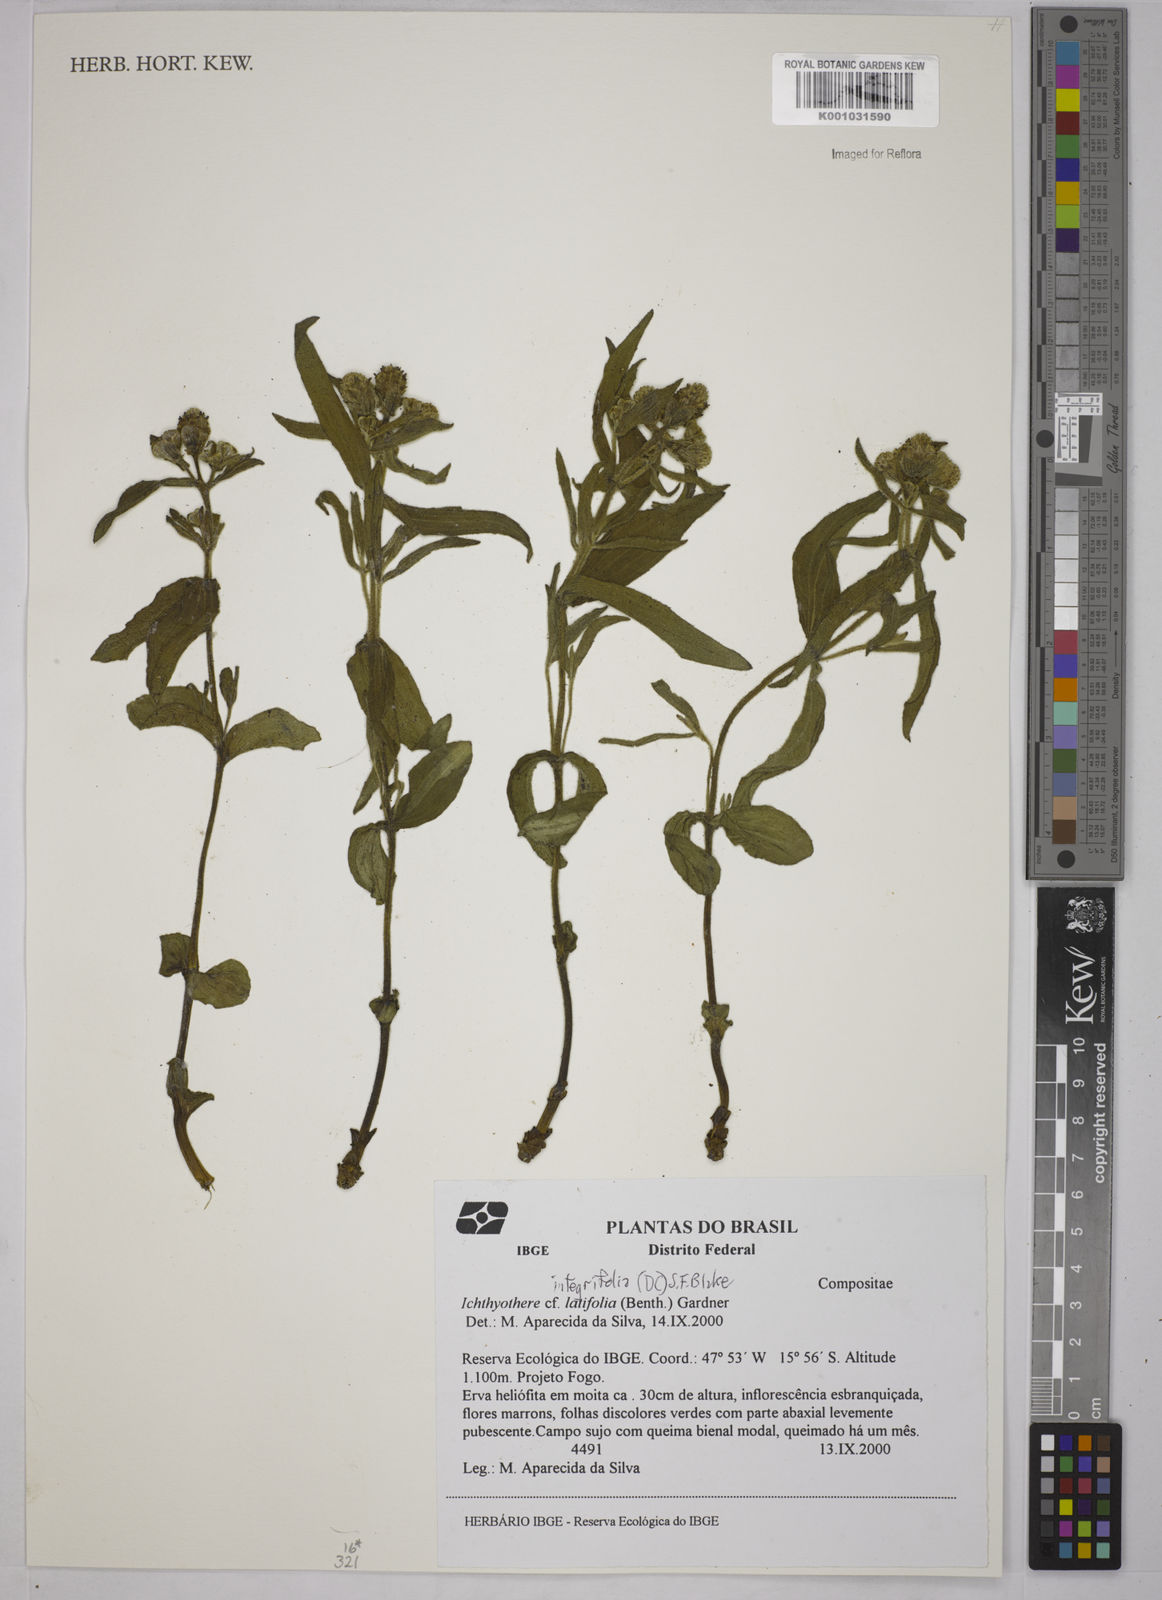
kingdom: Plantae
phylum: Tracheophyta
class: Magnoliopsida
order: Asterales
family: Asteraceae
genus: Ichthyothere
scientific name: Ichthyothere integrifolia
